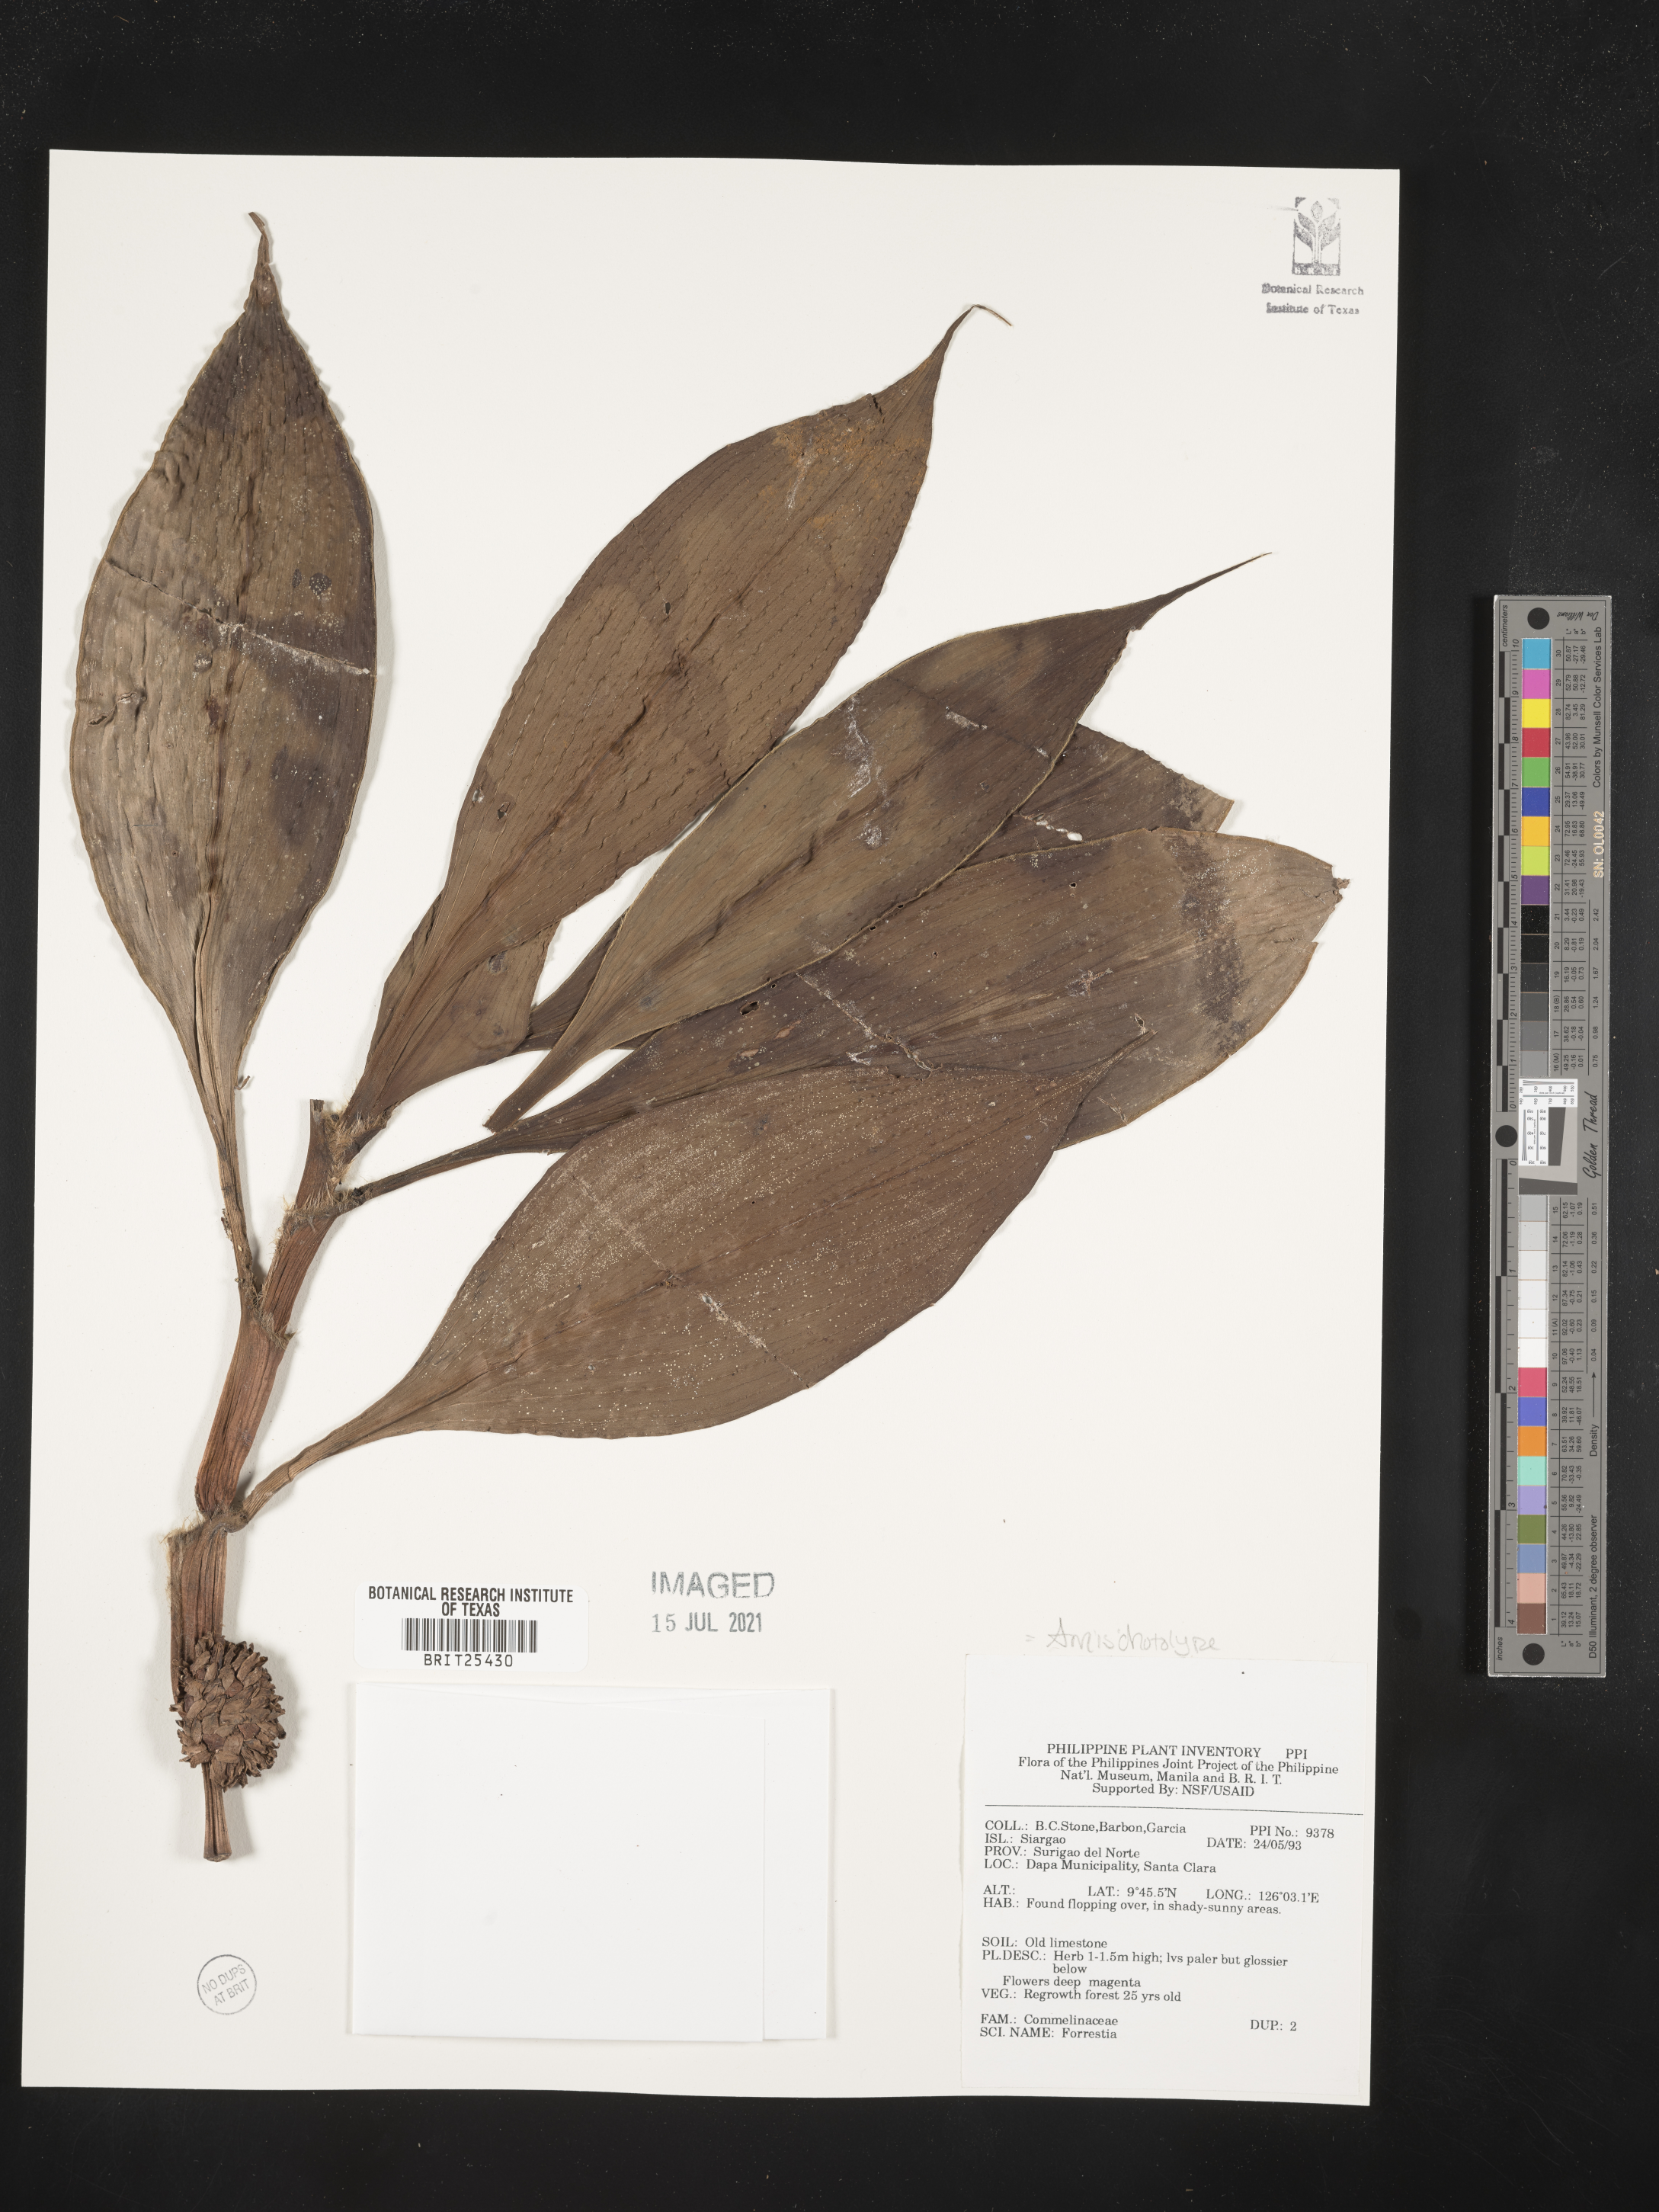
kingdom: Plantae
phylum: Tracheophyta
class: Magnoliopsida
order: Rosales
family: Rhamnaceae
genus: Ceanothus
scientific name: Ceanothus
